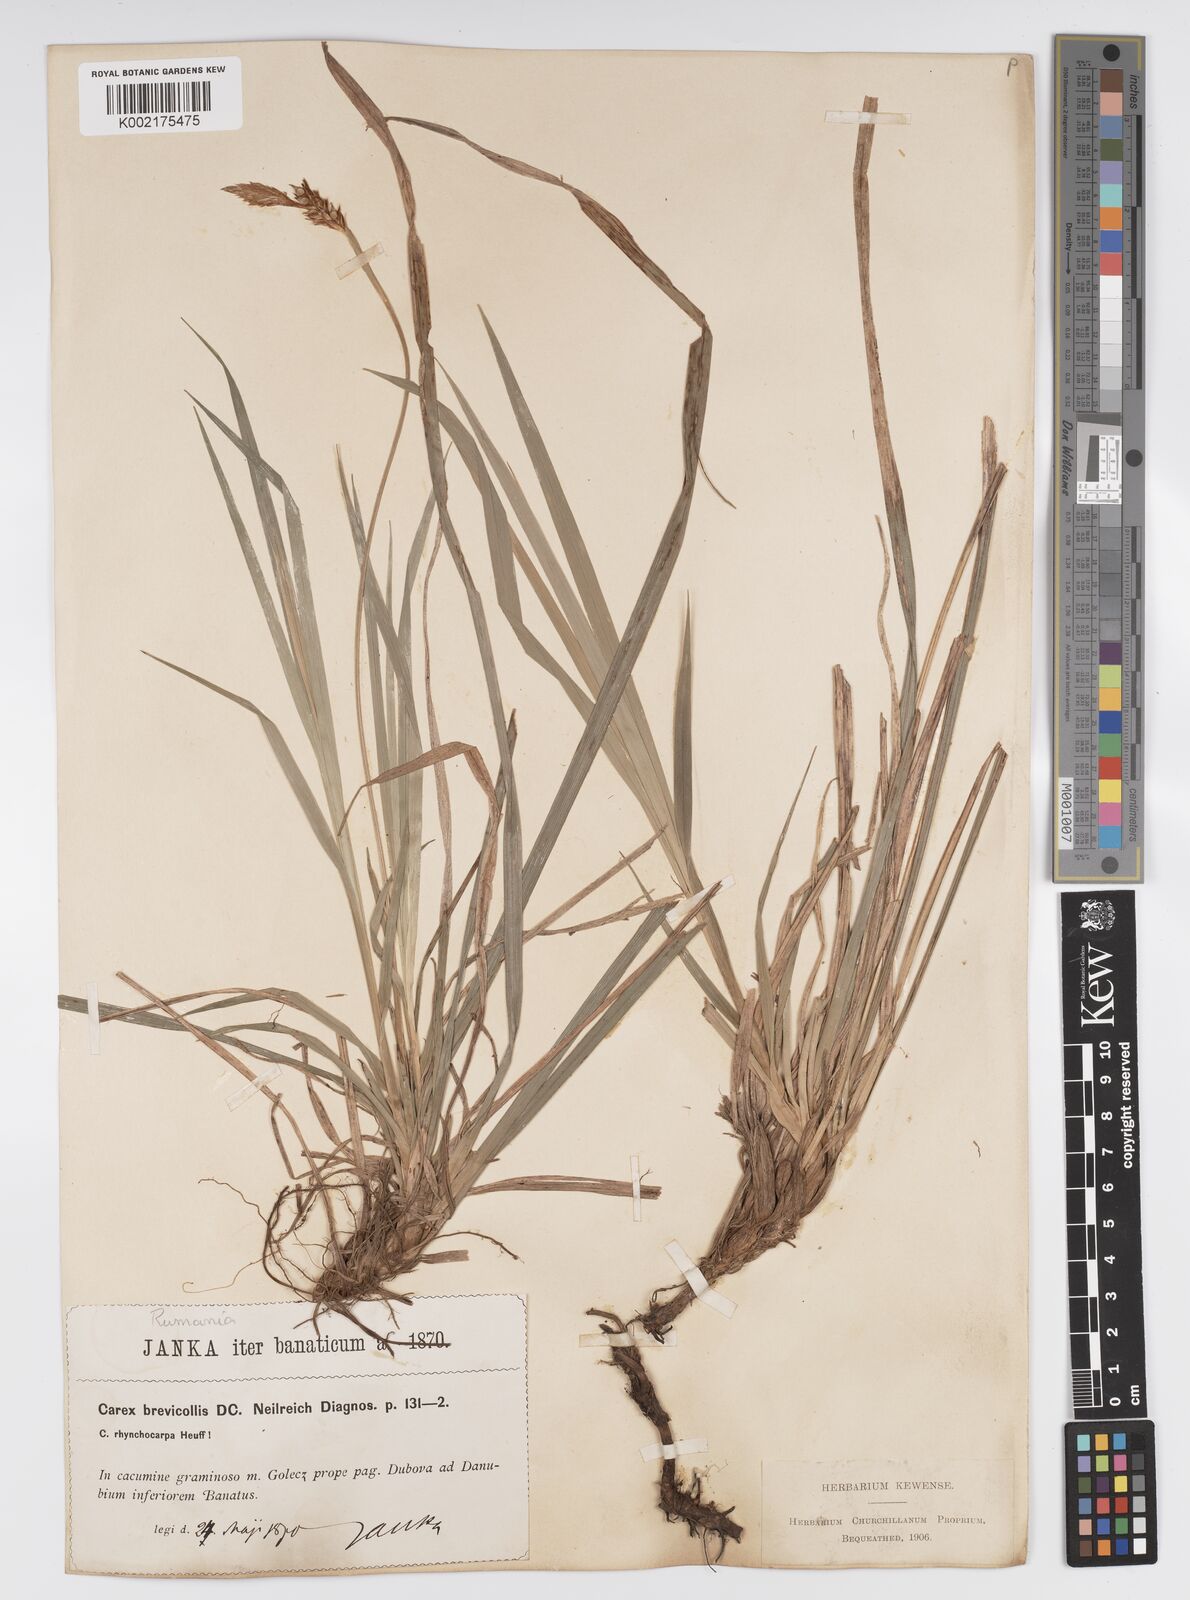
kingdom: Plantae
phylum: Tracheophyta
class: Liliopsida
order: Poales
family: Cyperaceae
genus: Carex
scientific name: Carex brevicollis
